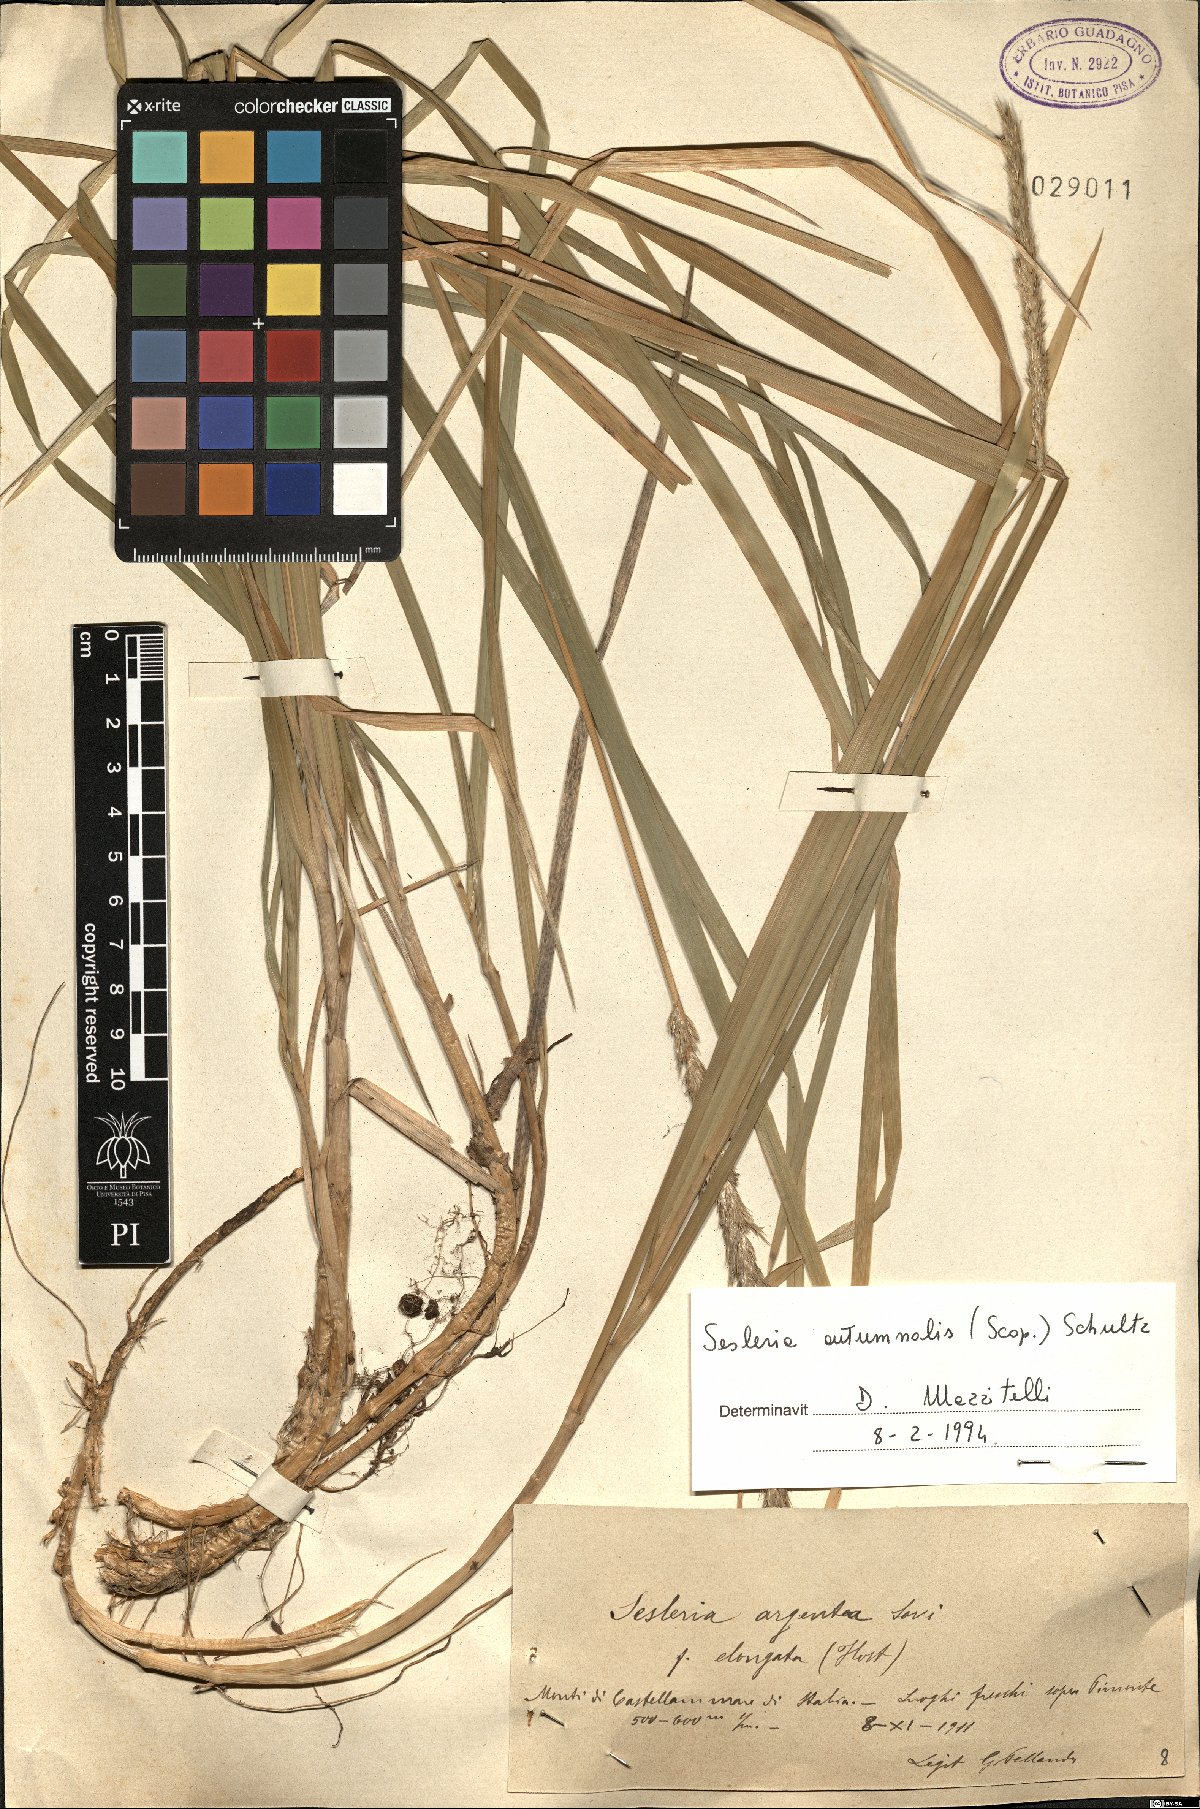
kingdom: Plantae
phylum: Tracheophyta
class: Liliopsida
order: Poales
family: Poaceae
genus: Sesleria
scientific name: Sesleria autumnalis
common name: Autumn moor grass
